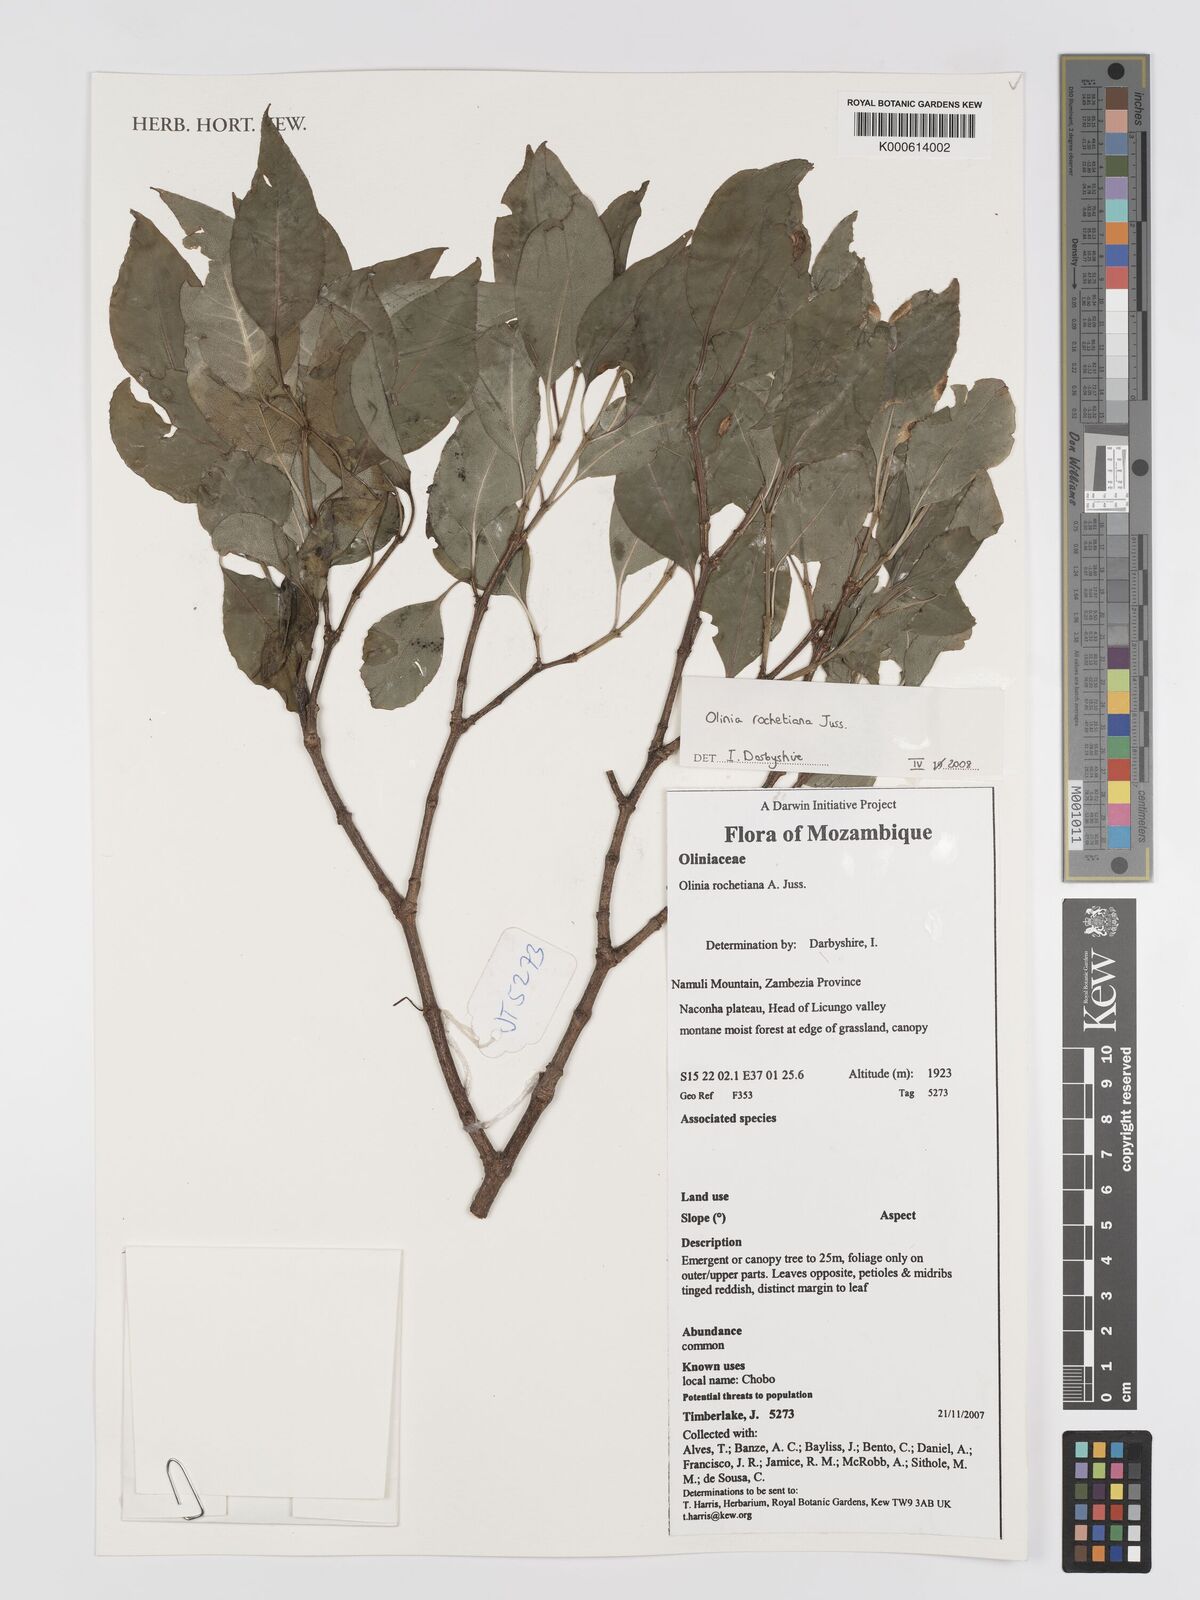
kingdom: Plantae
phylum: Tracheophyta
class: Magnoliopsida
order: Myrtales
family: Penaeaceae
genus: Olinia
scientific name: Olinia rochetiana
